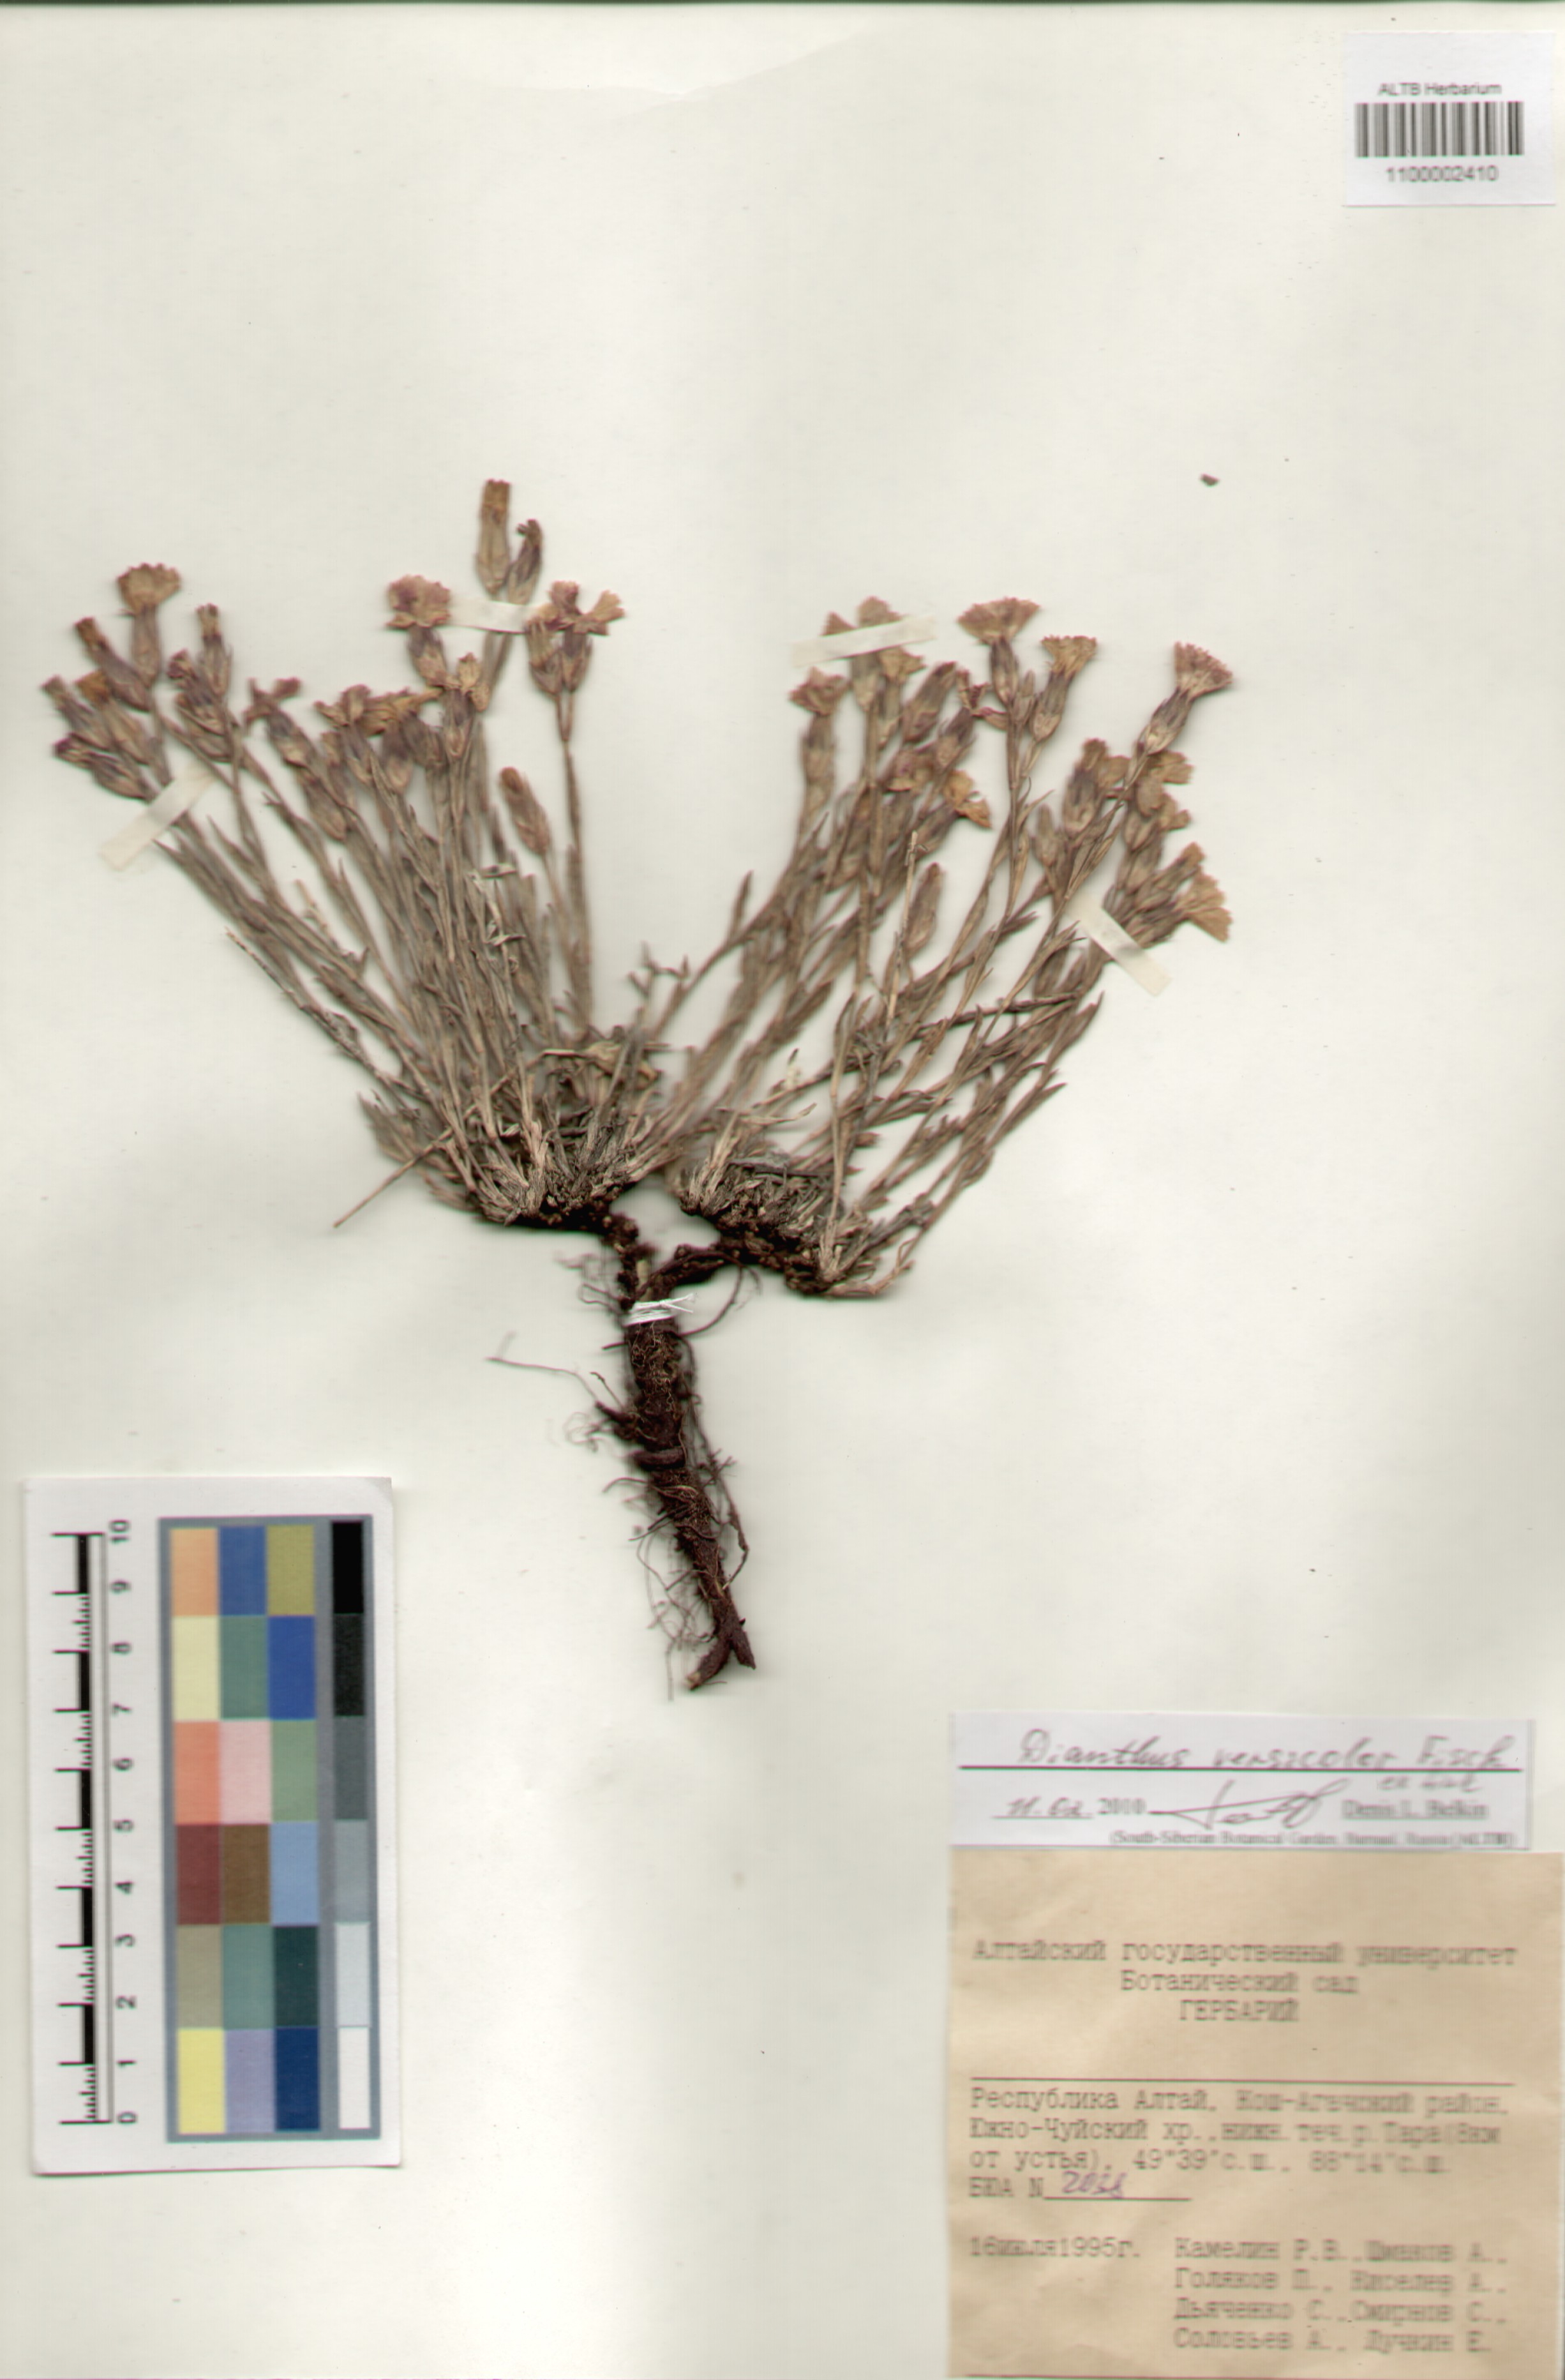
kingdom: Plantae
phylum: Tracheophyta
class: Magnoliopsida
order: Caryophyllales
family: Caryophyllaceae
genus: Dianthus
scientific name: Dianthus chinensis
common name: Rainbow pink
